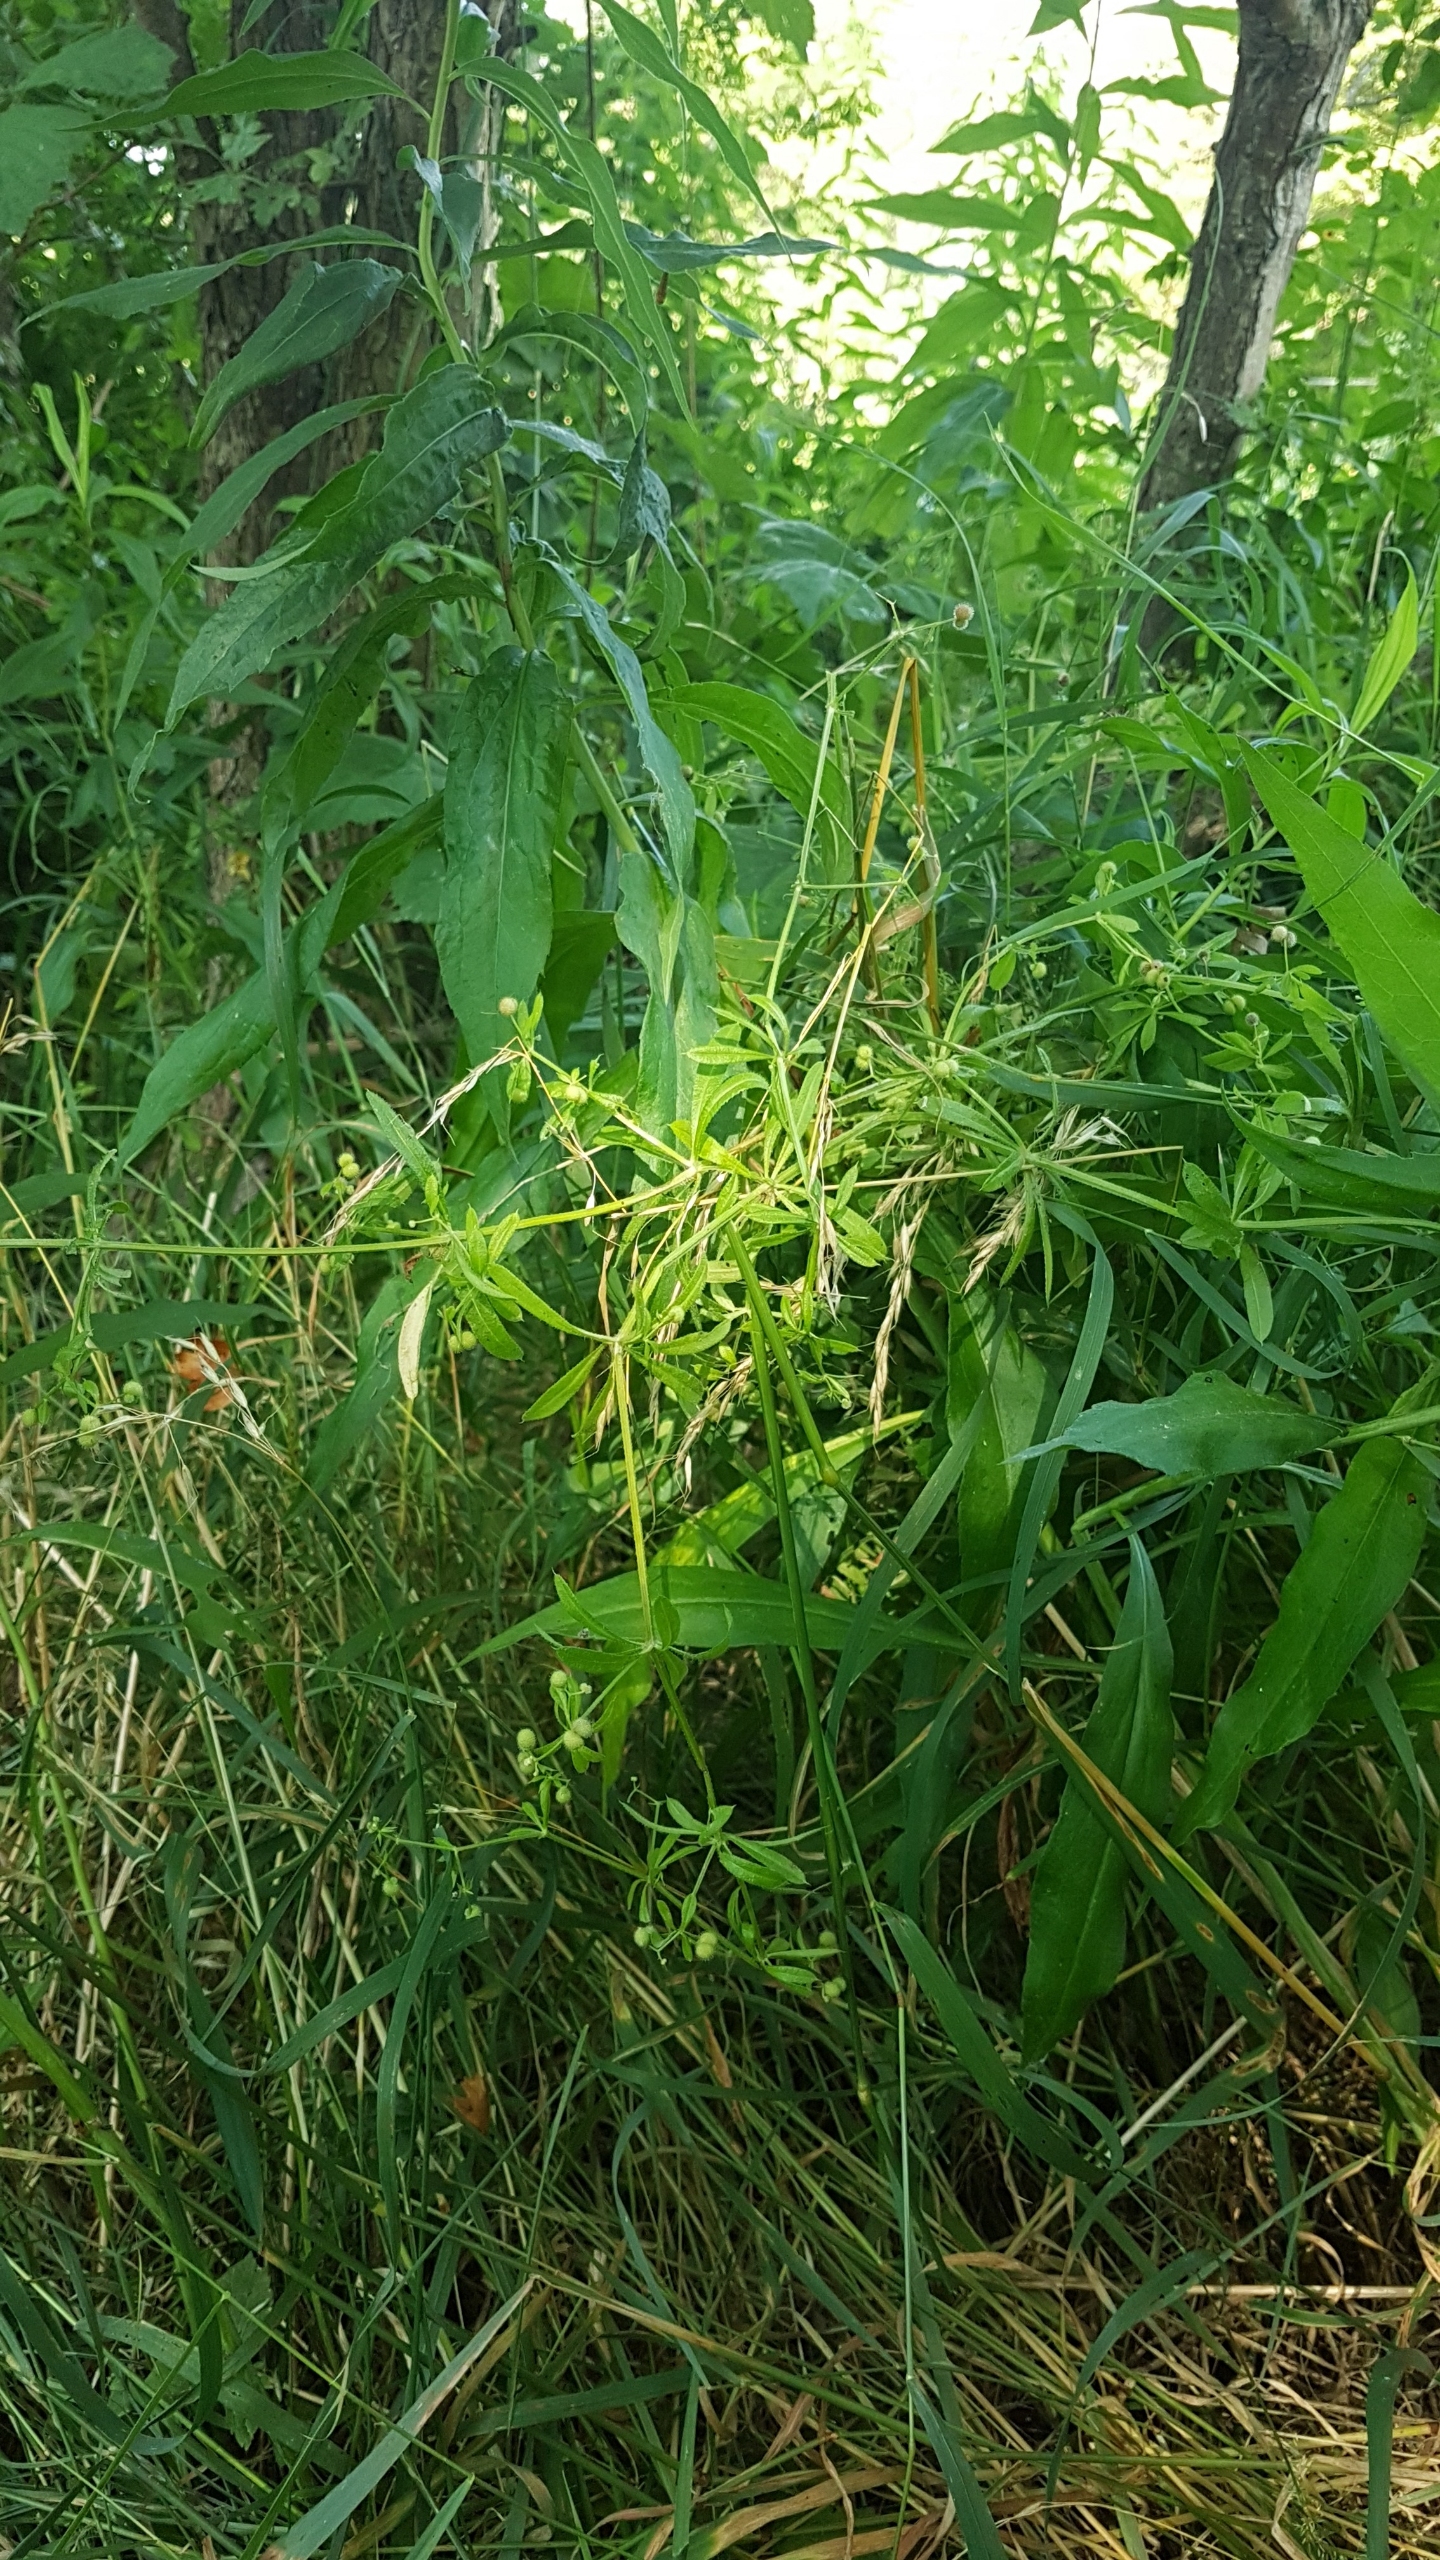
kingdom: Plantae
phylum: Tracheophyta
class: Magnoliopsida
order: Gentianales
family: Rubiaceae
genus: Galium
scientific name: Galium aparine
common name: Burre-snerre
